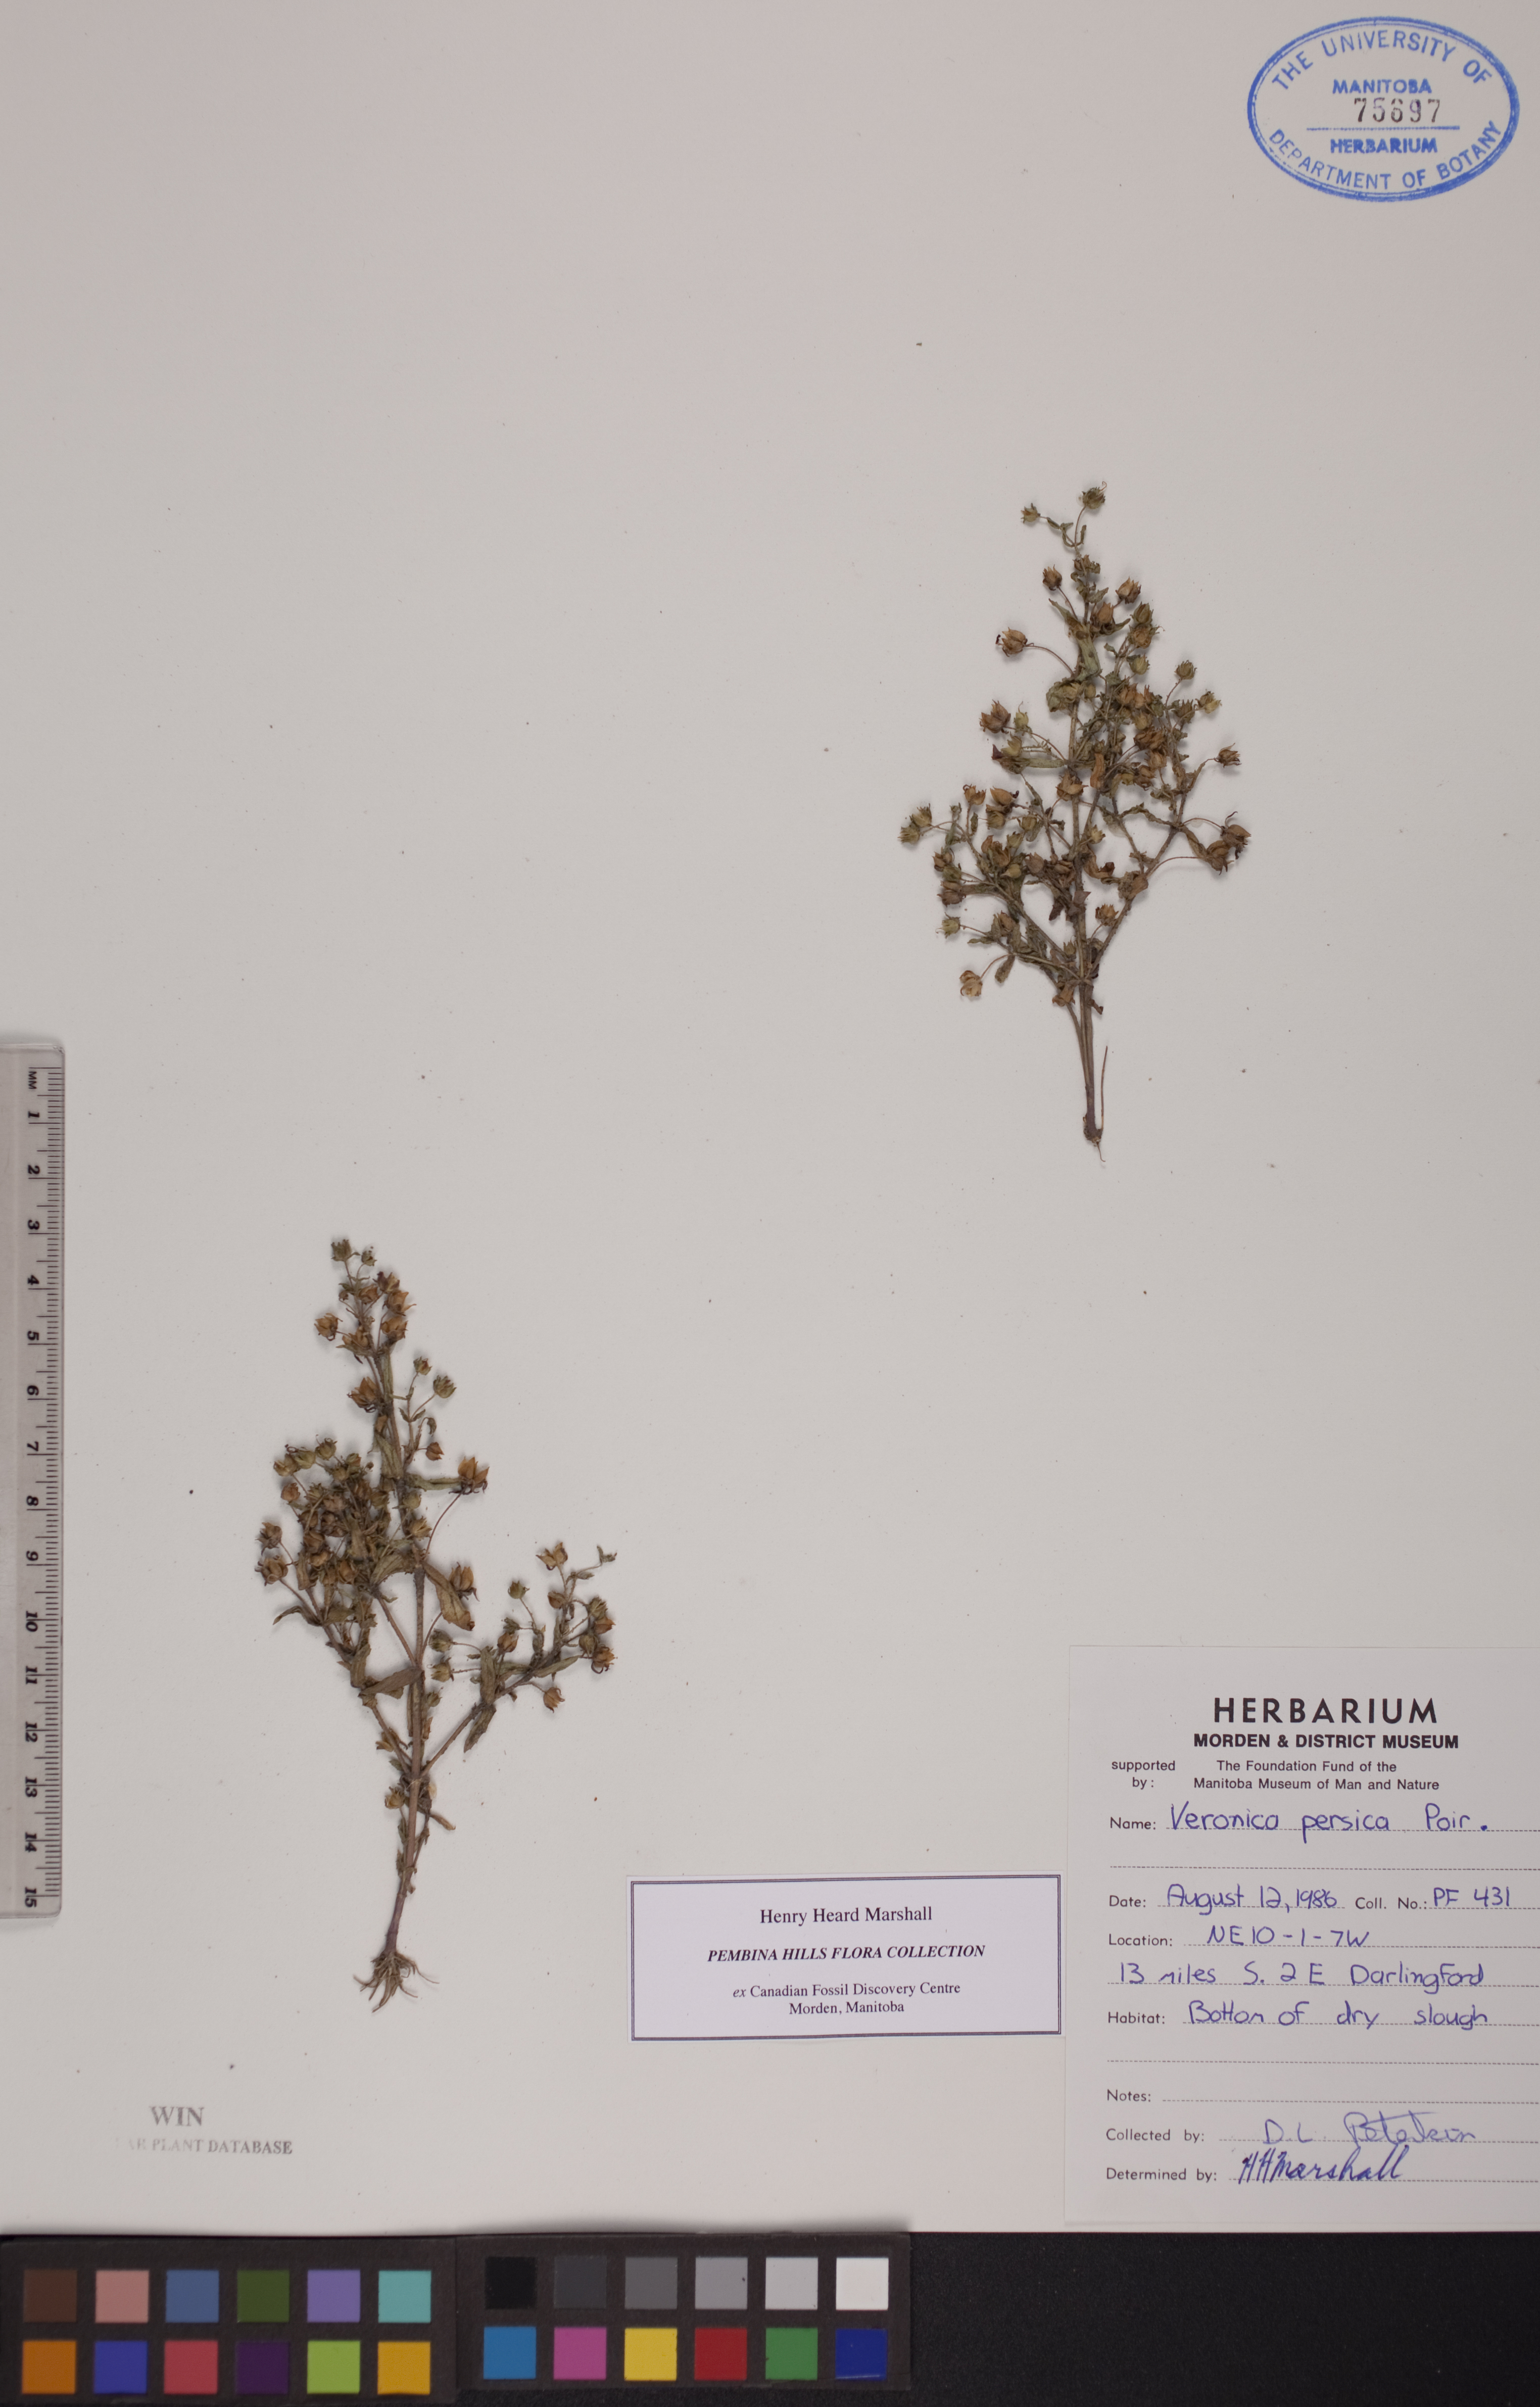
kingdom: Plantae
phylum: Tracheophyta
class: Magnoliopsida
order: Lamiales
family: Plantaginaceae
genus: Veronica
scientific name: Veronica persica
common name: Common field-speedwell
